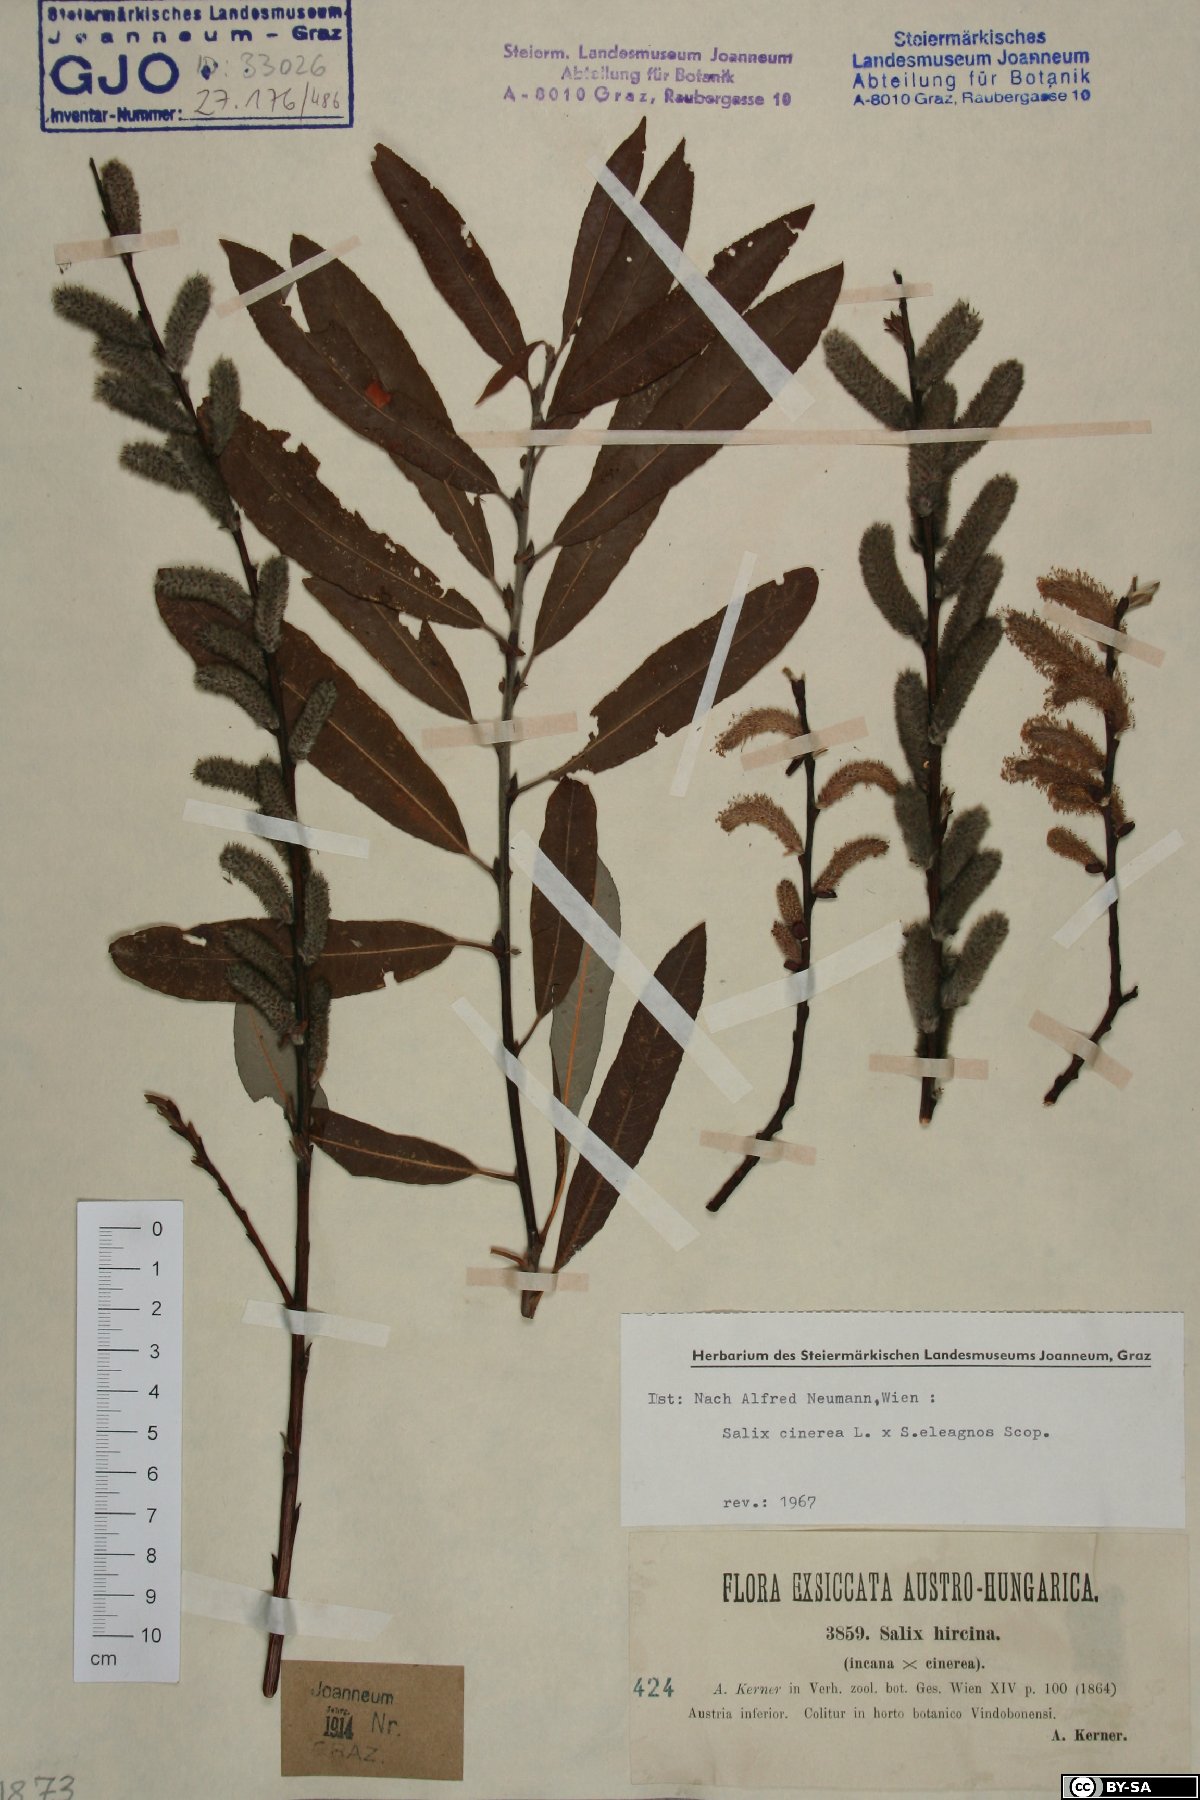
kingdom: Plantae
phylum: Tracheophyta
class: Magnoliopsida
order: Malpighiales
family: Salicaceae
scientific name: Salicaceae
